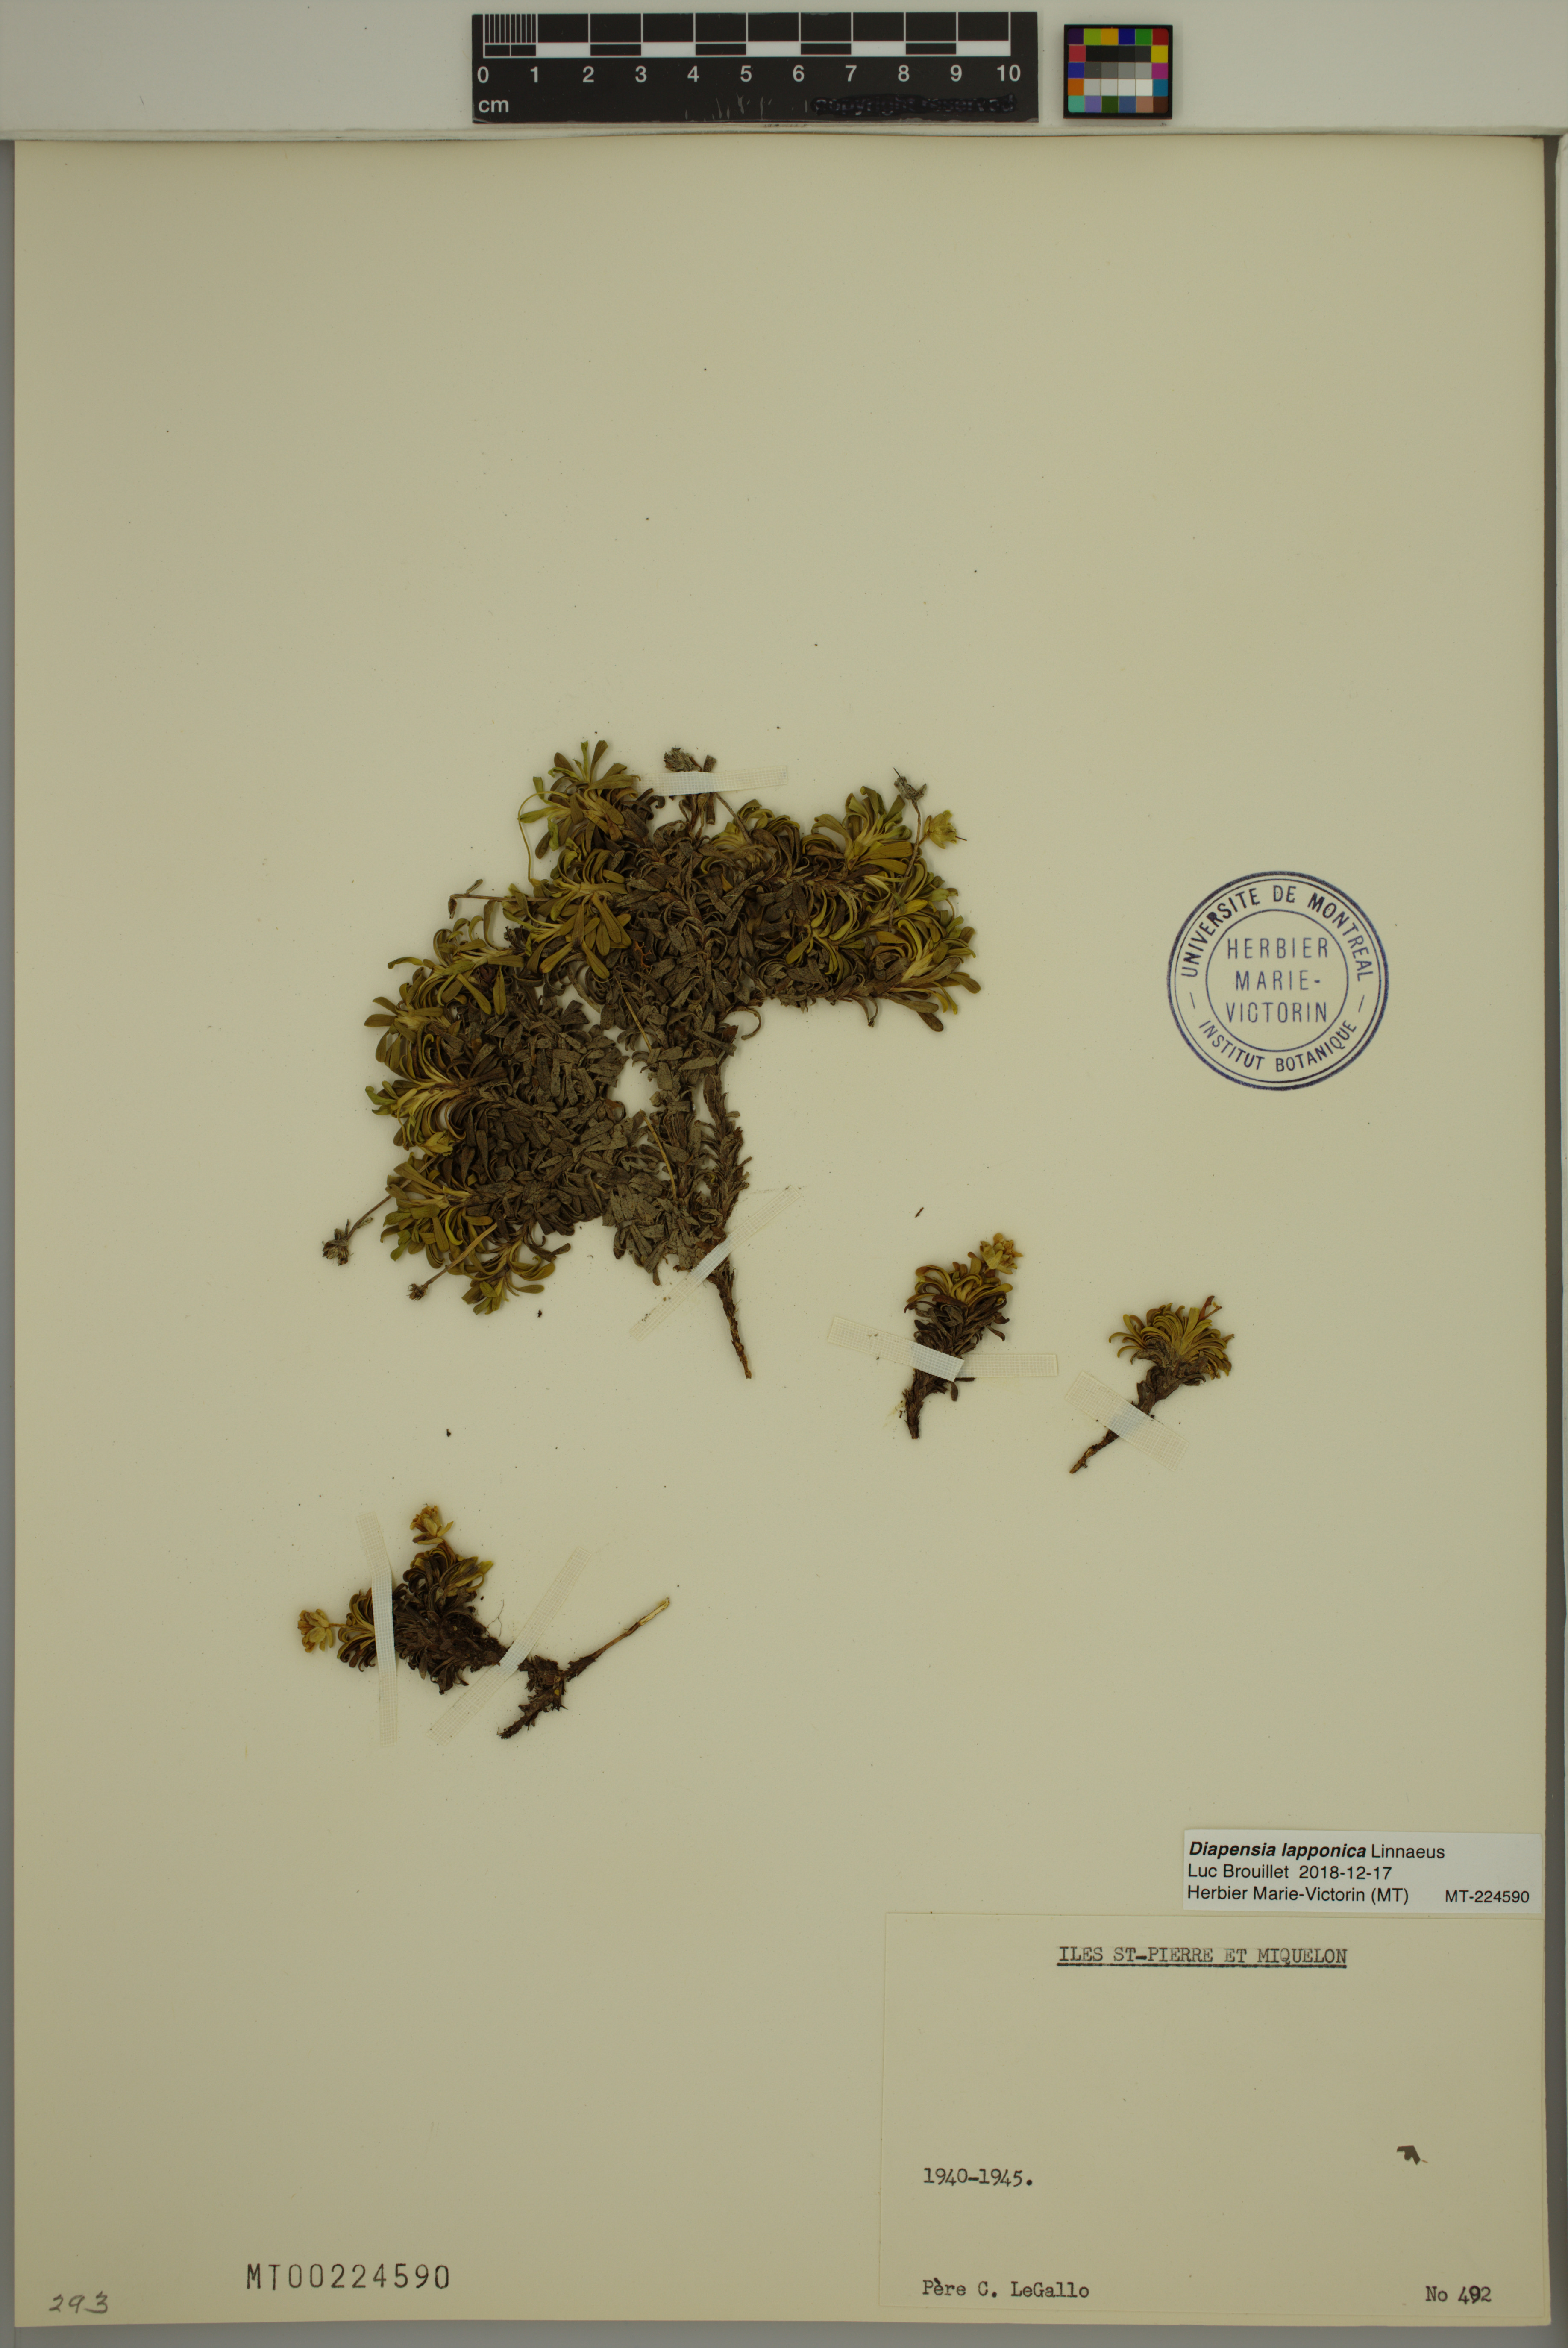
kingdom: Plantae
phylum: Tracheophyta
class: Magnoliopsida
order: Ericales
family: Diapensiaceae
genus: Diapensia
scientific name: Diapensia lapponica
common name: Diapensia
